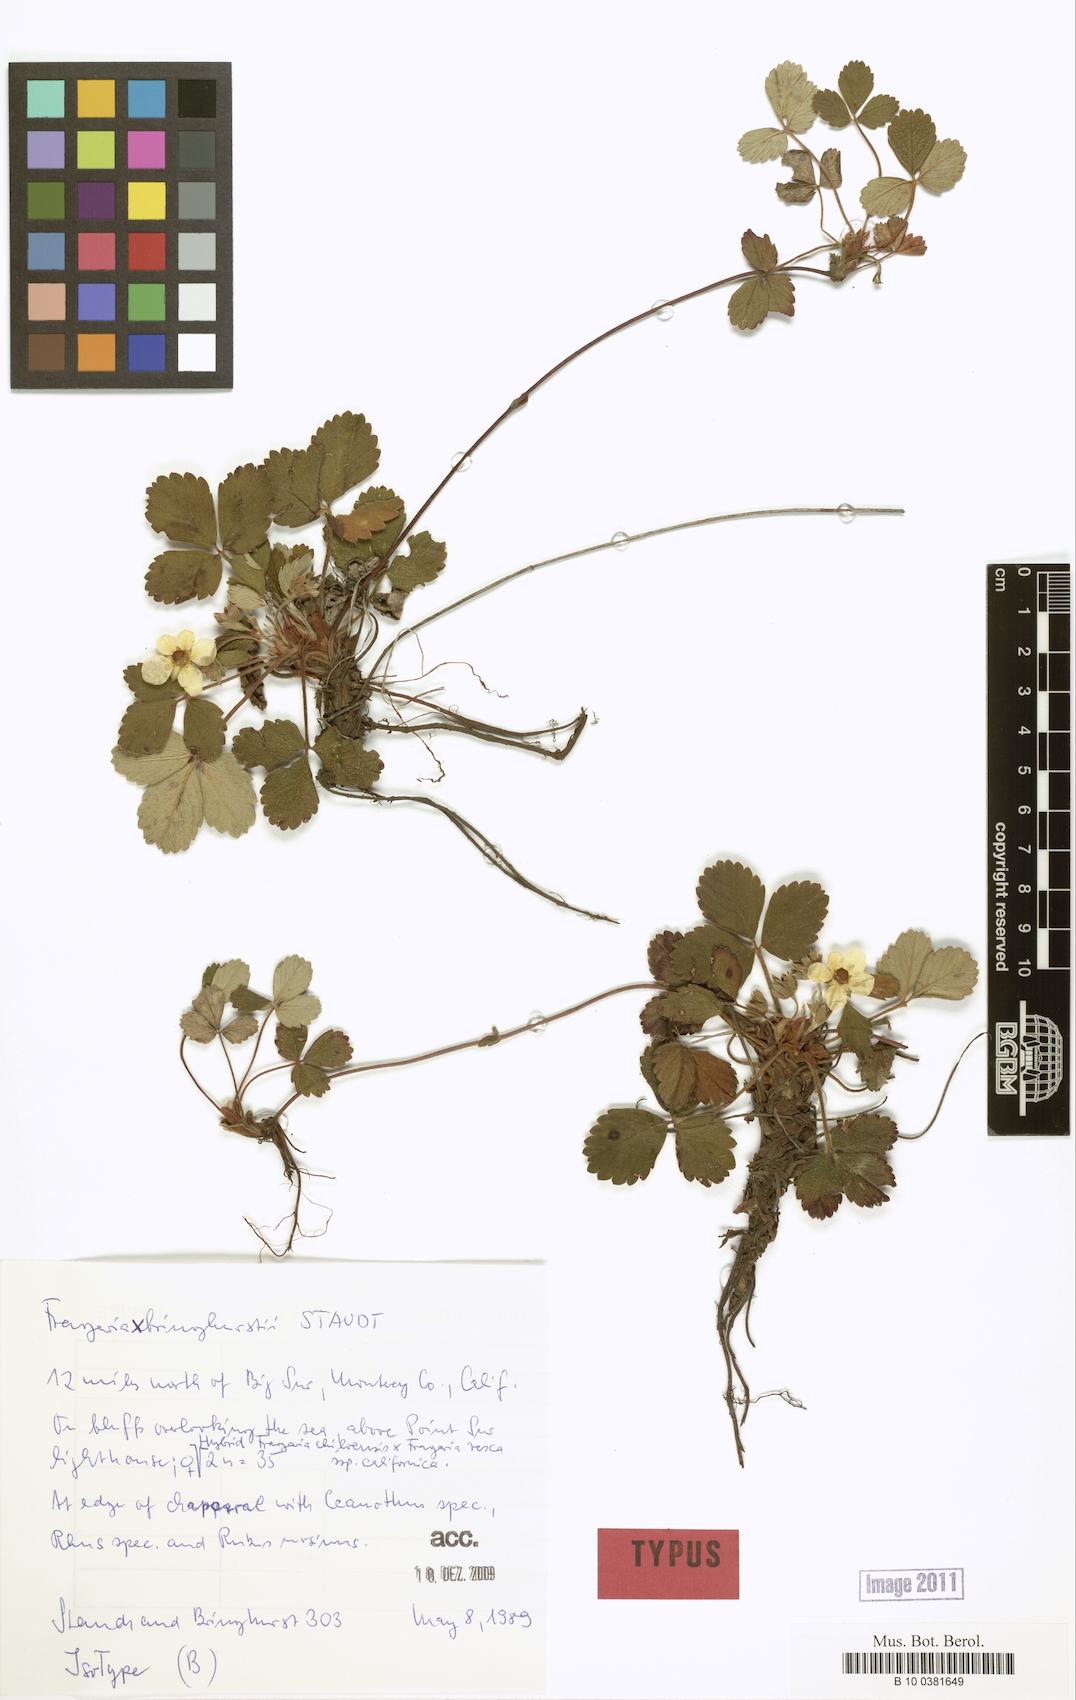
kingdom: Plantae
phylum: Tracheophyta
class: Magnoliopsida
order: Rosales
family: Rosaceae
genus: Fragaria
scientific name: Fragaria bringhurstii
